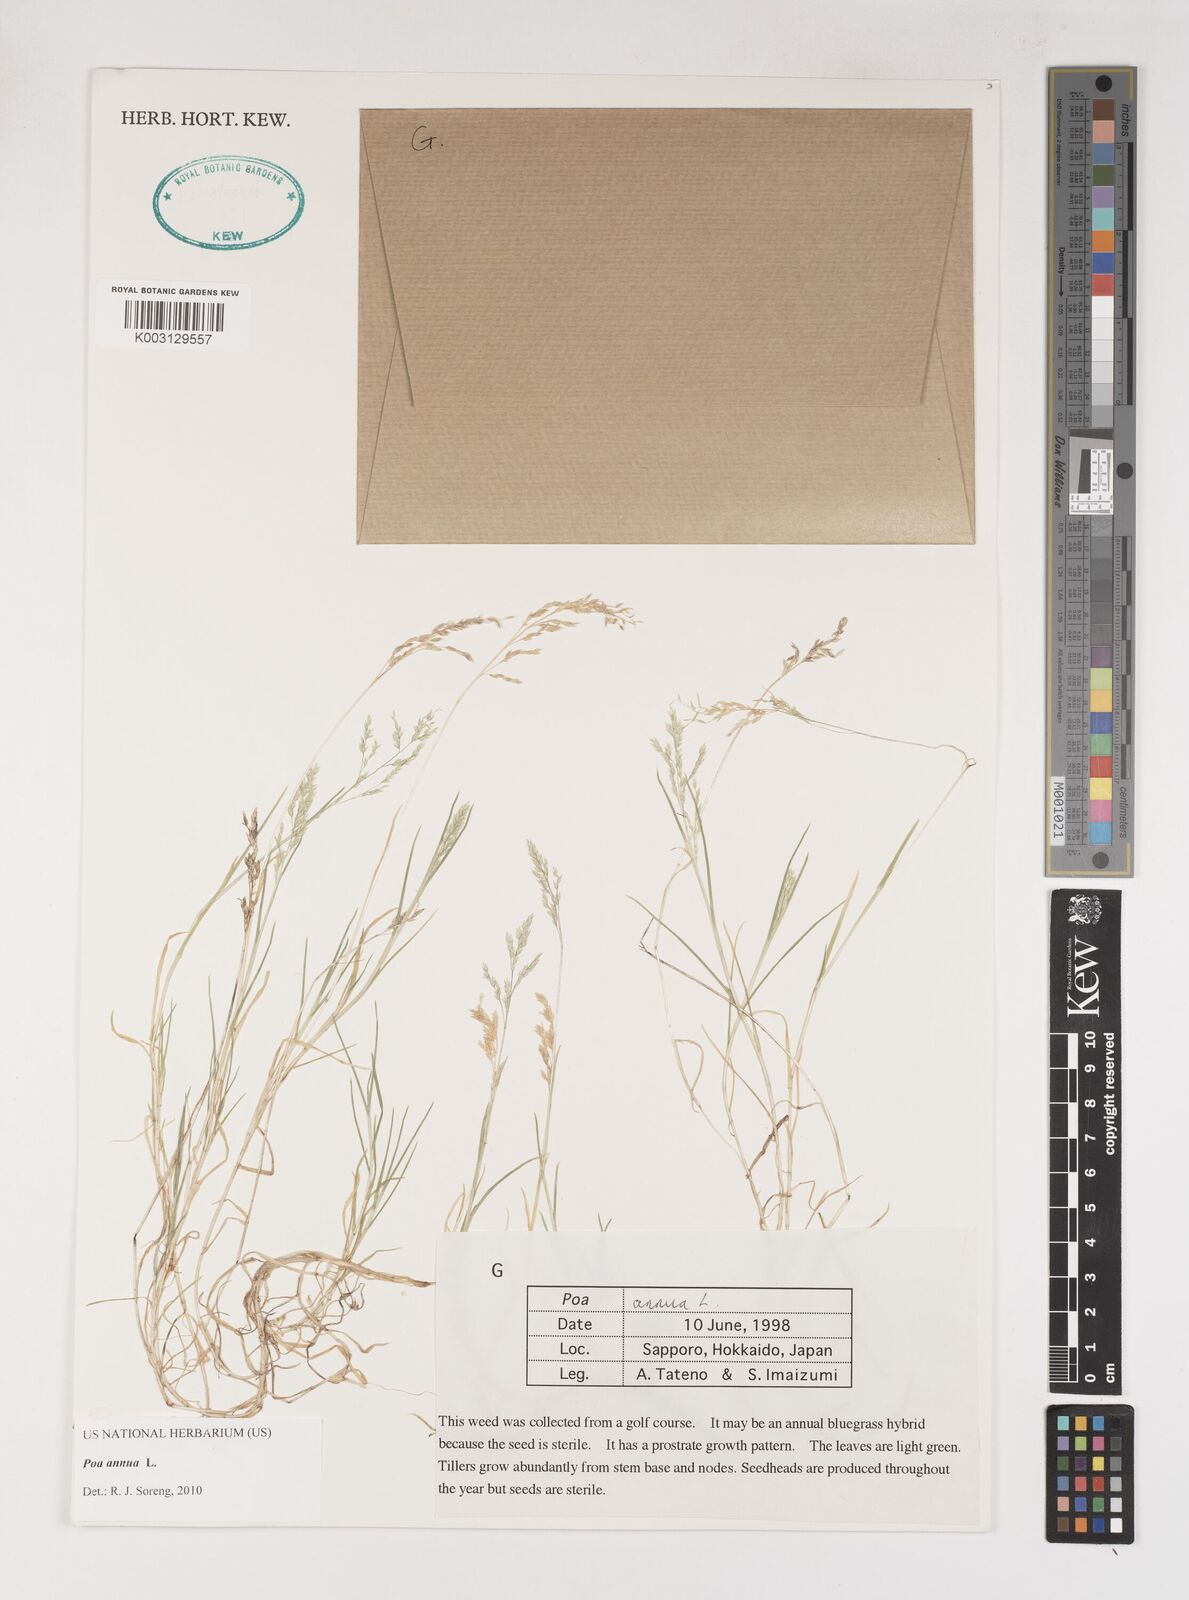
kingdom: Plantae
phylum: Tracheophyta
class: Liliopsida
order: Poales
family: Poaceae
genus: Poa
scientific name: Poa annua
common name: Annual bluegrass
